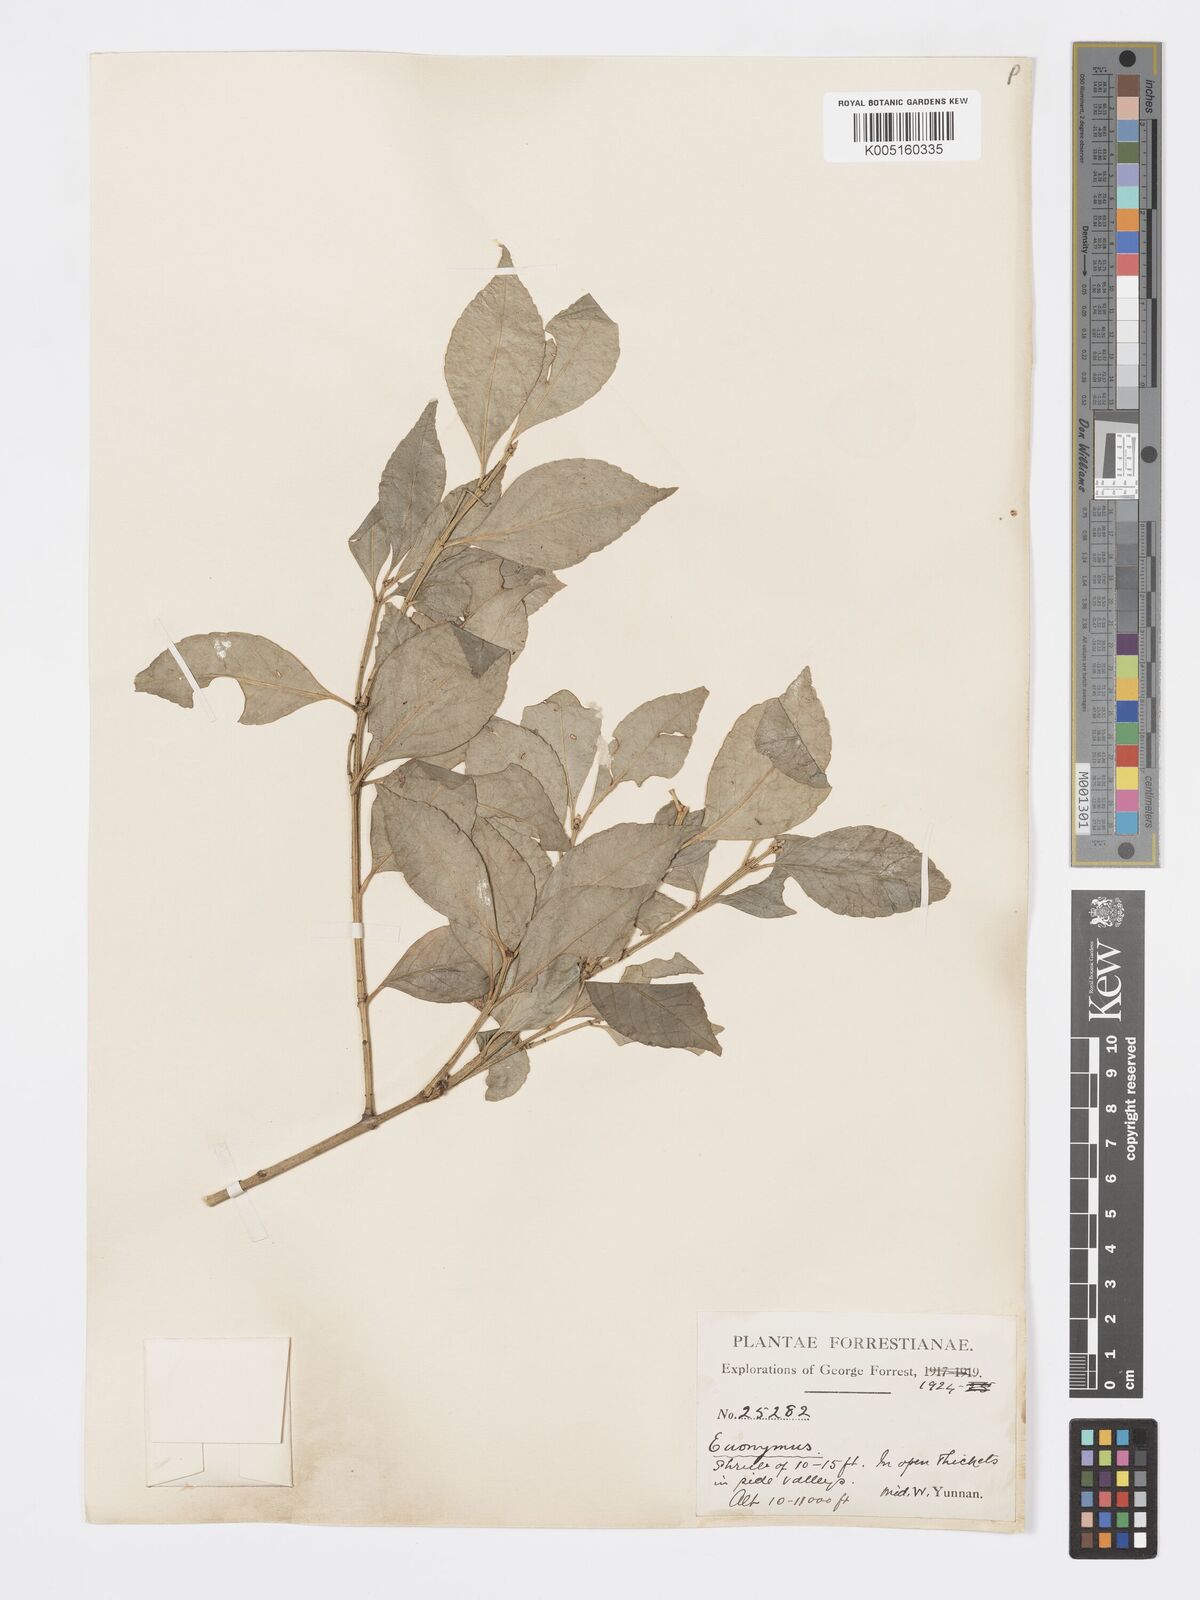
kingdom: Plantae
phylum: Tracheophyta
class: Magnoliopsida
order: Celastrales
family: Celastraceae
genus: Euonymus
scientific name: Euonymus
